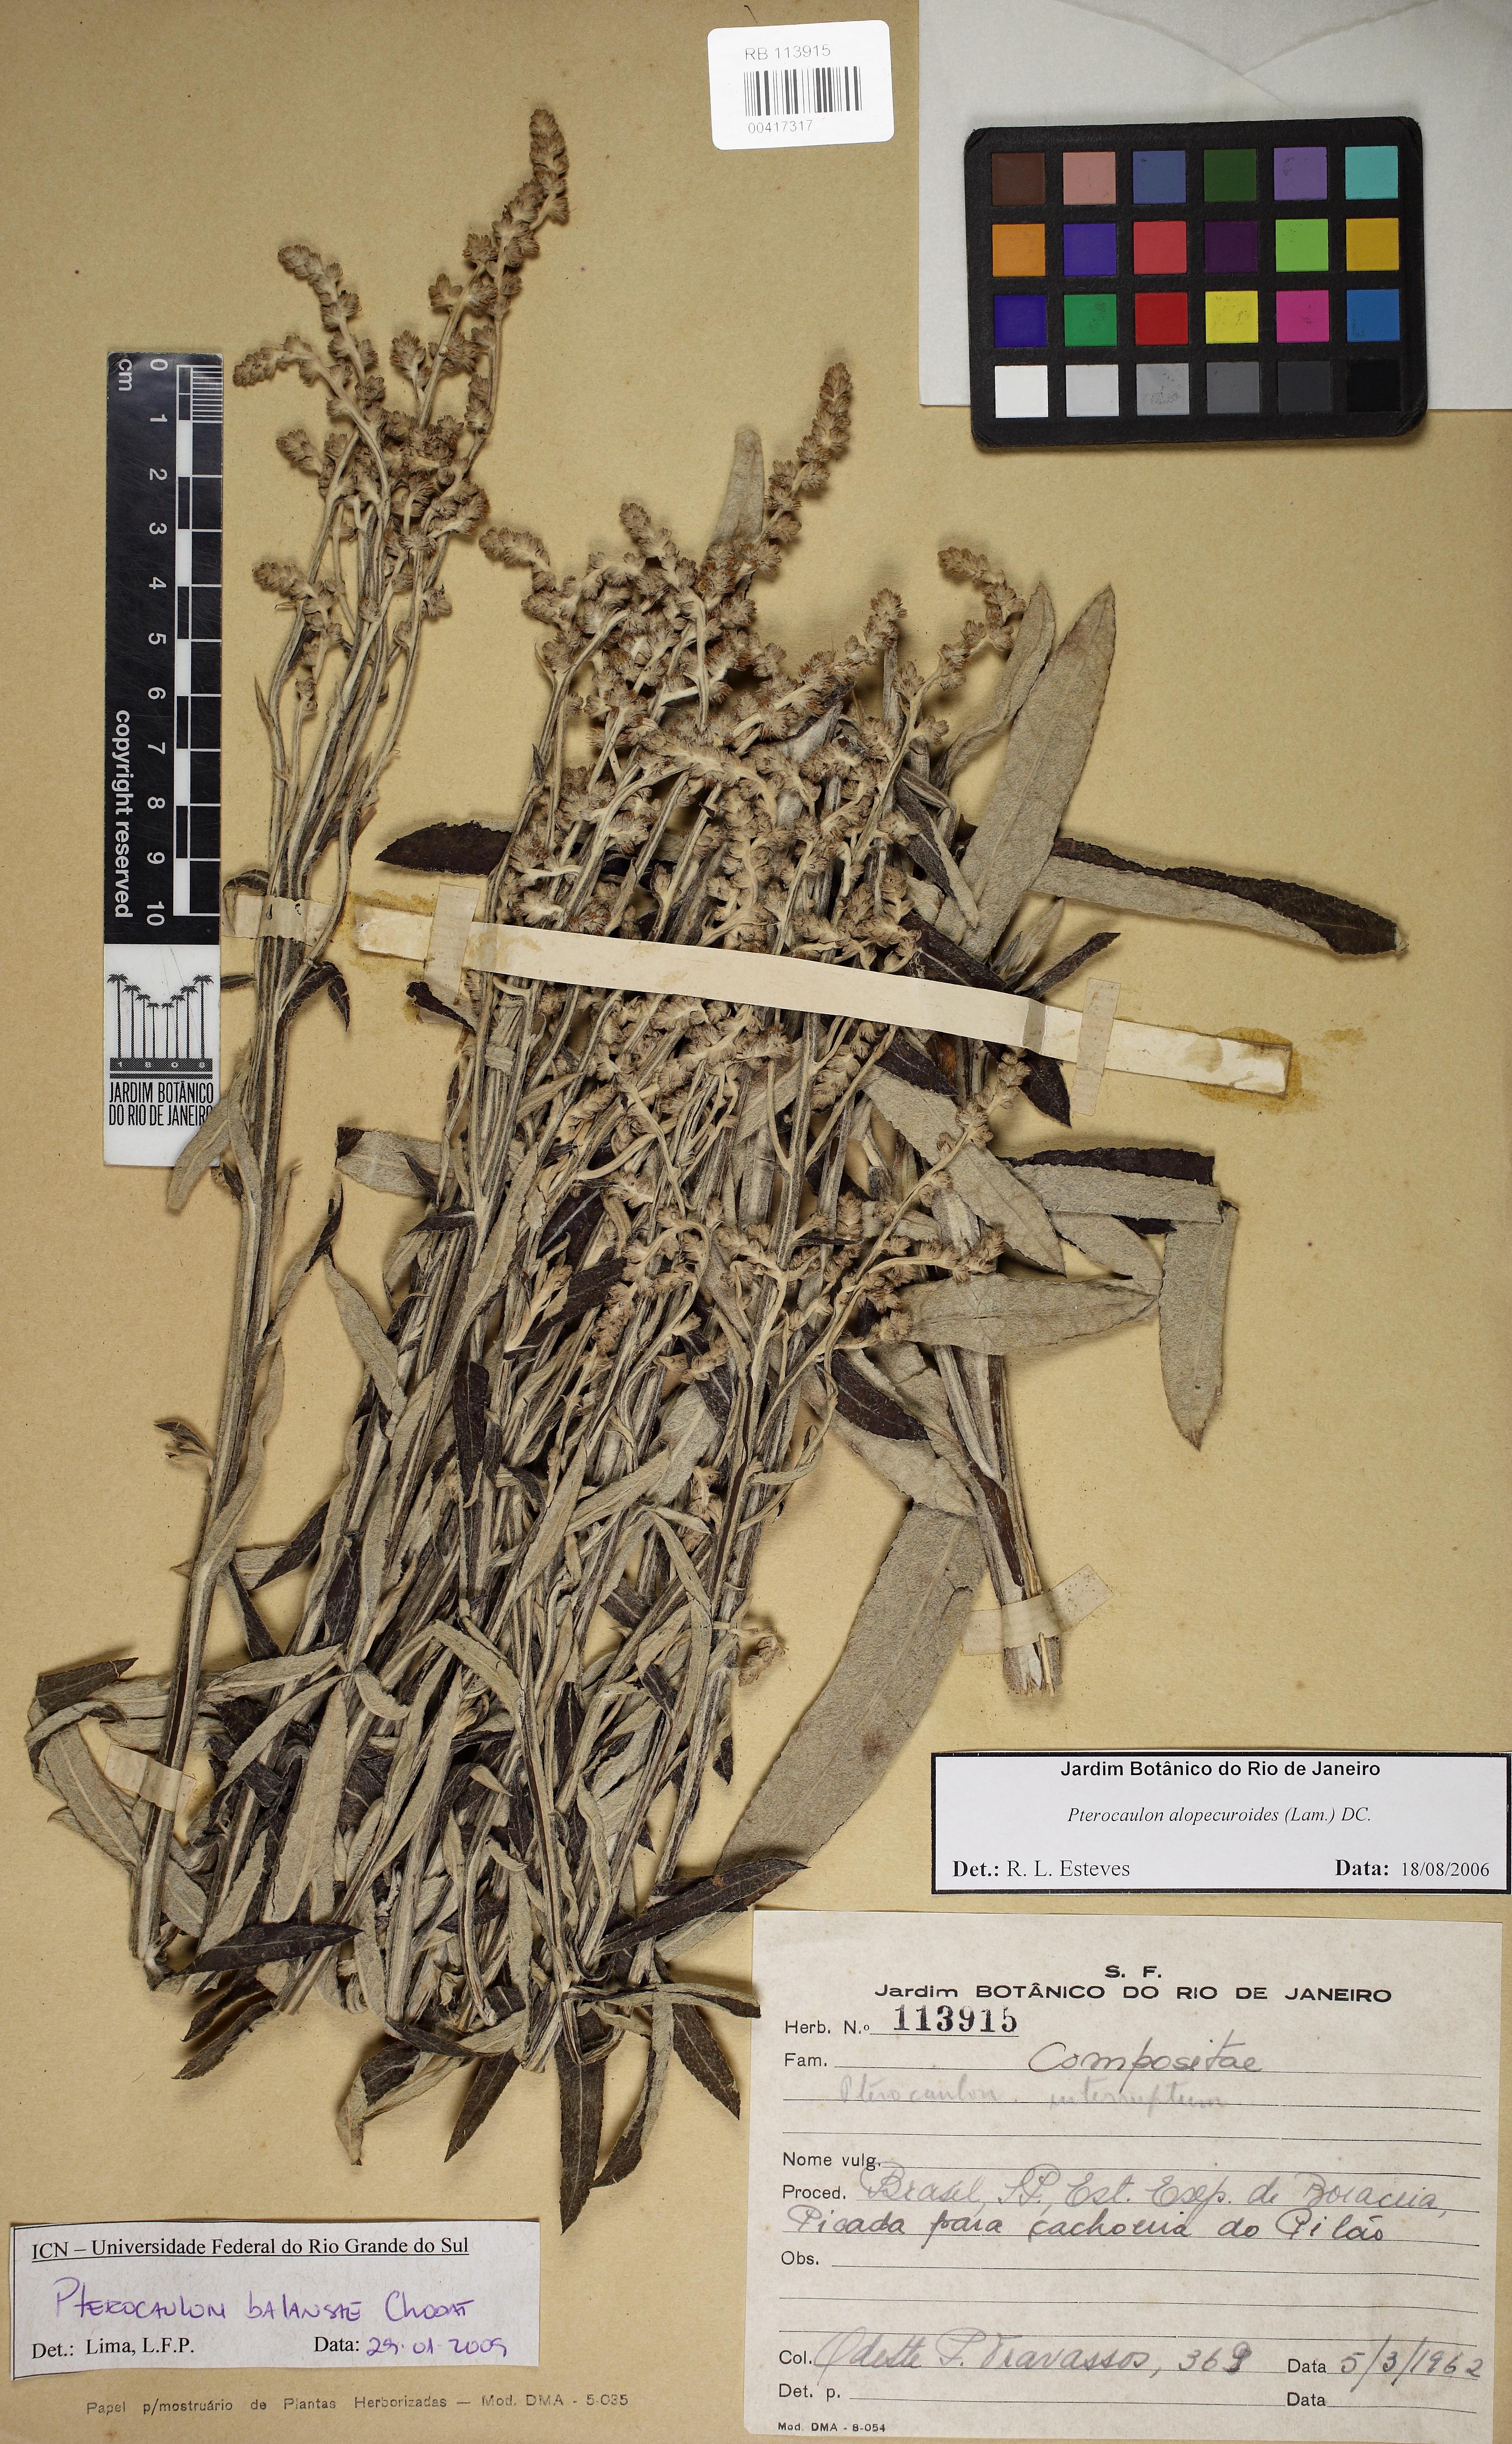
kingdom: Plantae
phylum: Tracheophyta
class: Magnoliopsida
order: Asterales
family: Asteraceae
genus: Pterocaulon
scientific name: Pterocaulon balansae
